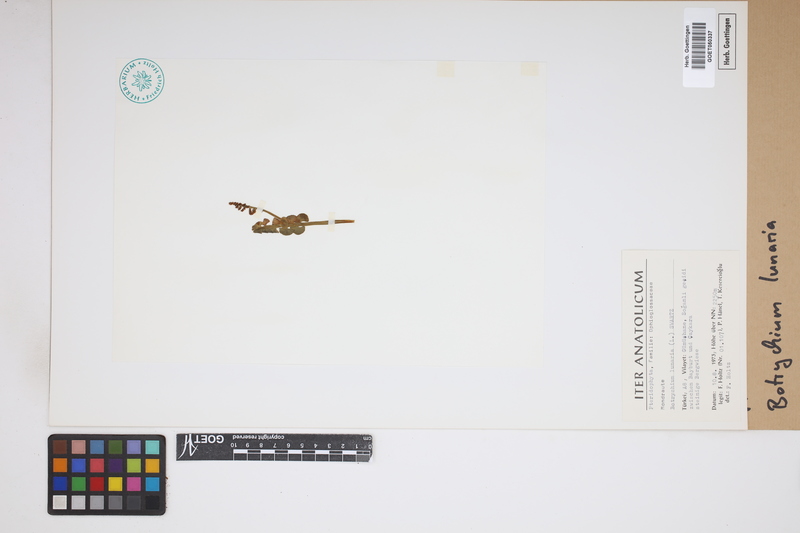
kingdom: Plantae
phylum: Tracheophyta
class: Polypodiopsida
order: Ophioglossales
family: Ophioglossaceae
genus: Botrychium
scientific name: Botrychium lunaria
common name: Moonwort
